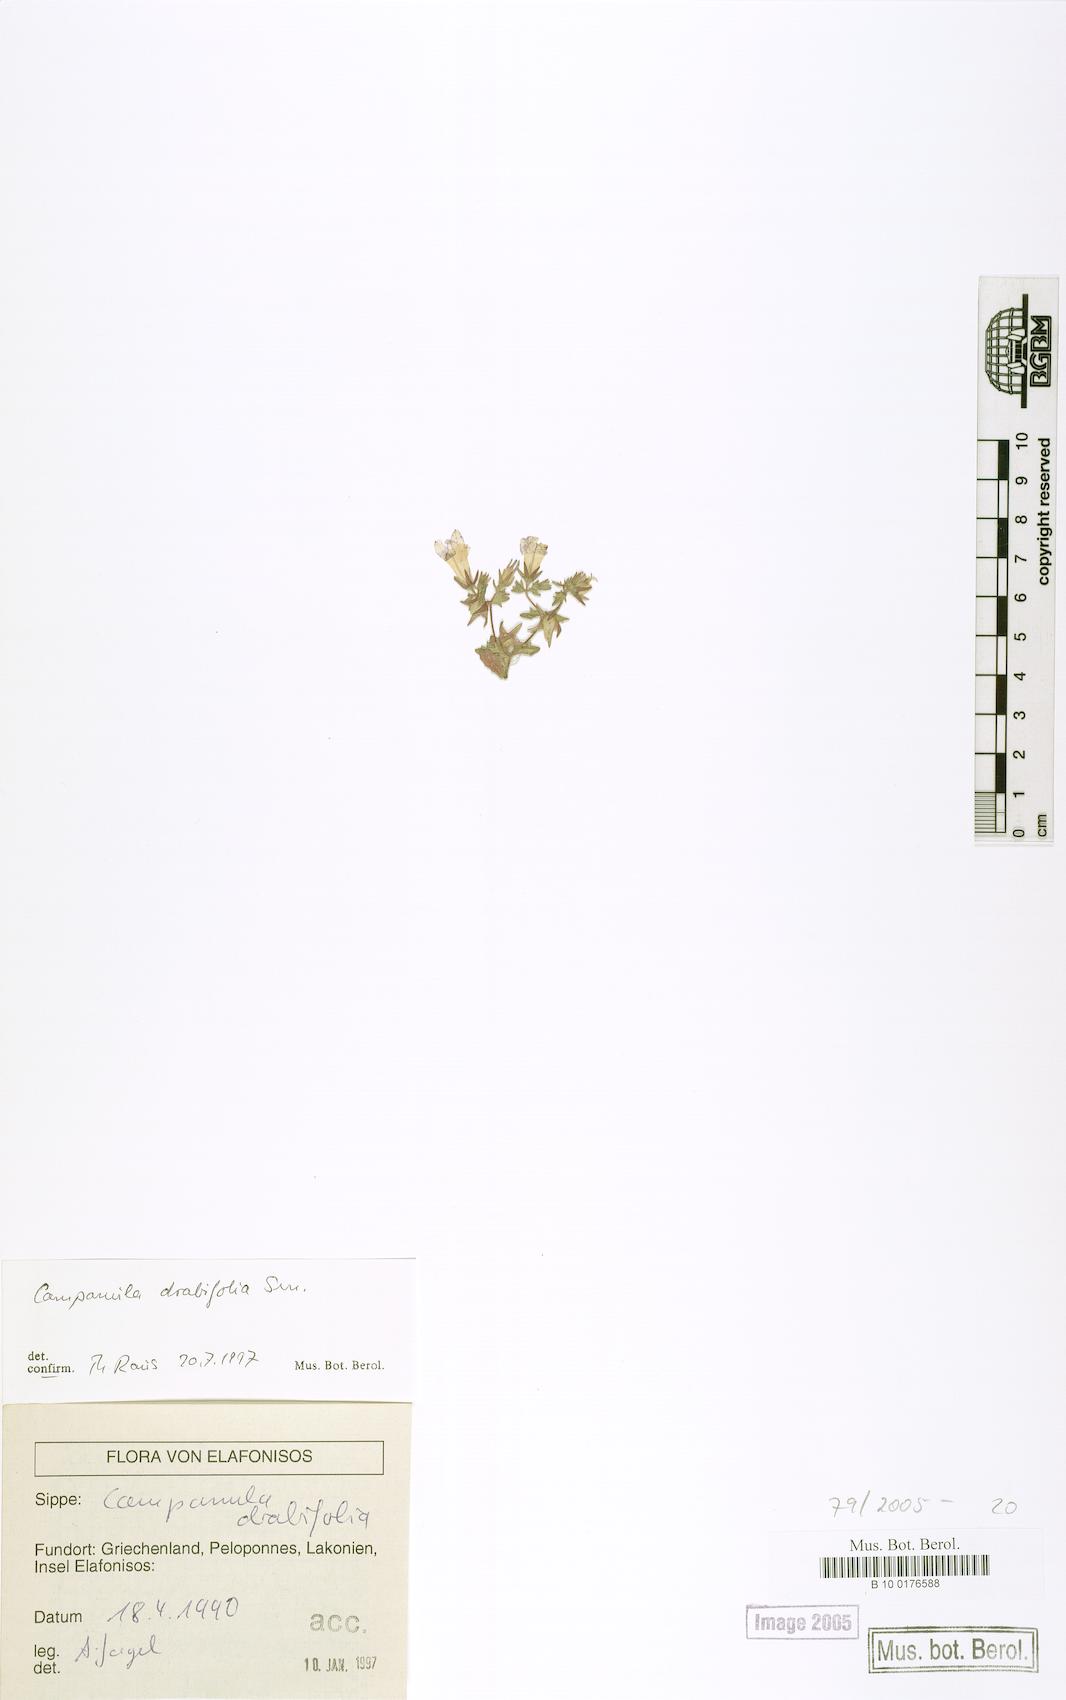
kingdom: Plantae
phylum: Tracheophyta
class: Magnoliopsida
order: Asterales
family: Campanulaceae
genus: Campanula
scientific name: Campanula drabifolia
